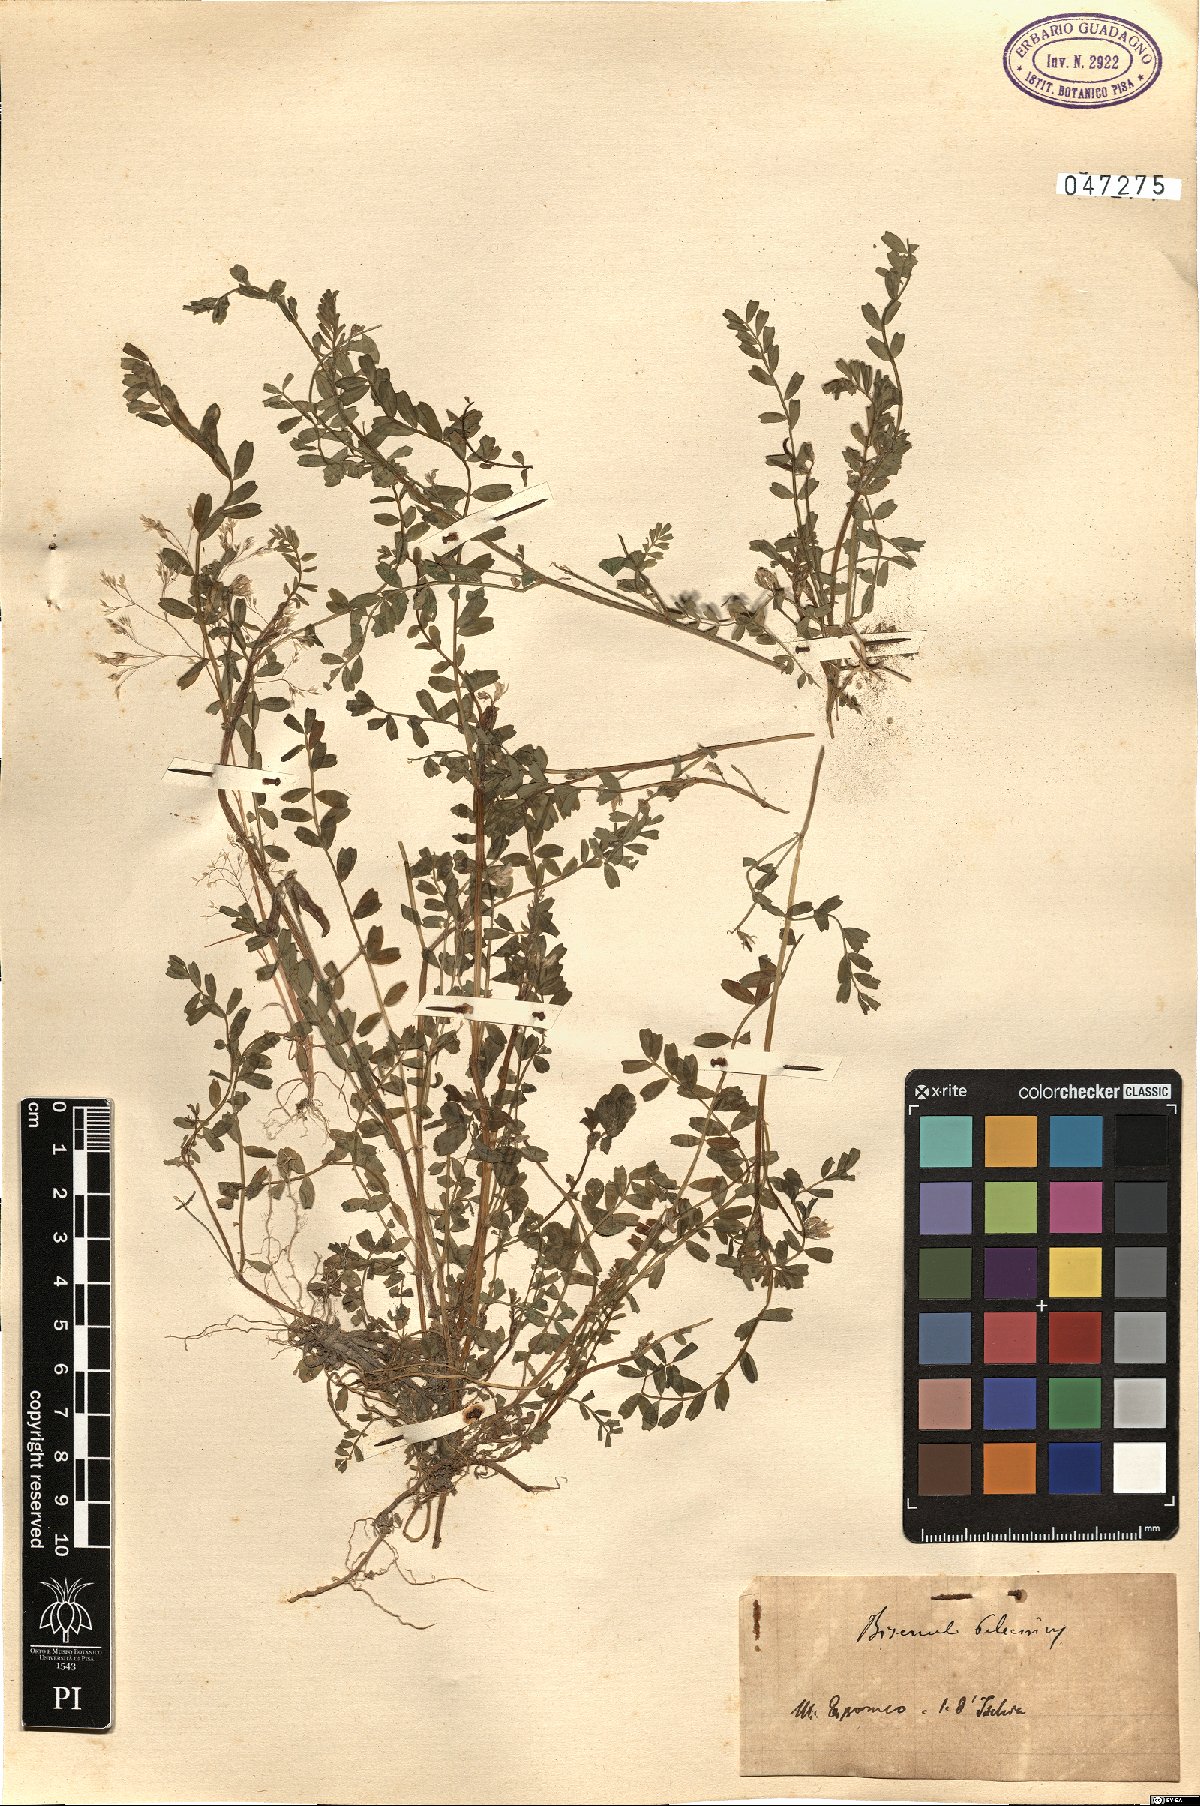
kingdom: Plantae
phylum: Tracheophyta
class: Magnoliopsida
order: Fabales
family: Fabaceae
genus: Biserrula
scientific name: Biserrula pelecinus
